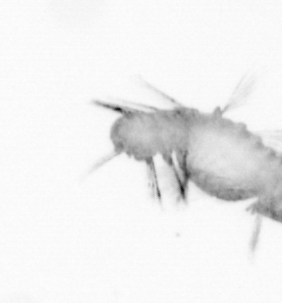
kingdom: Animalia
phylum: Annelida
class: Polychaeta
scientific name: Polychaeta
